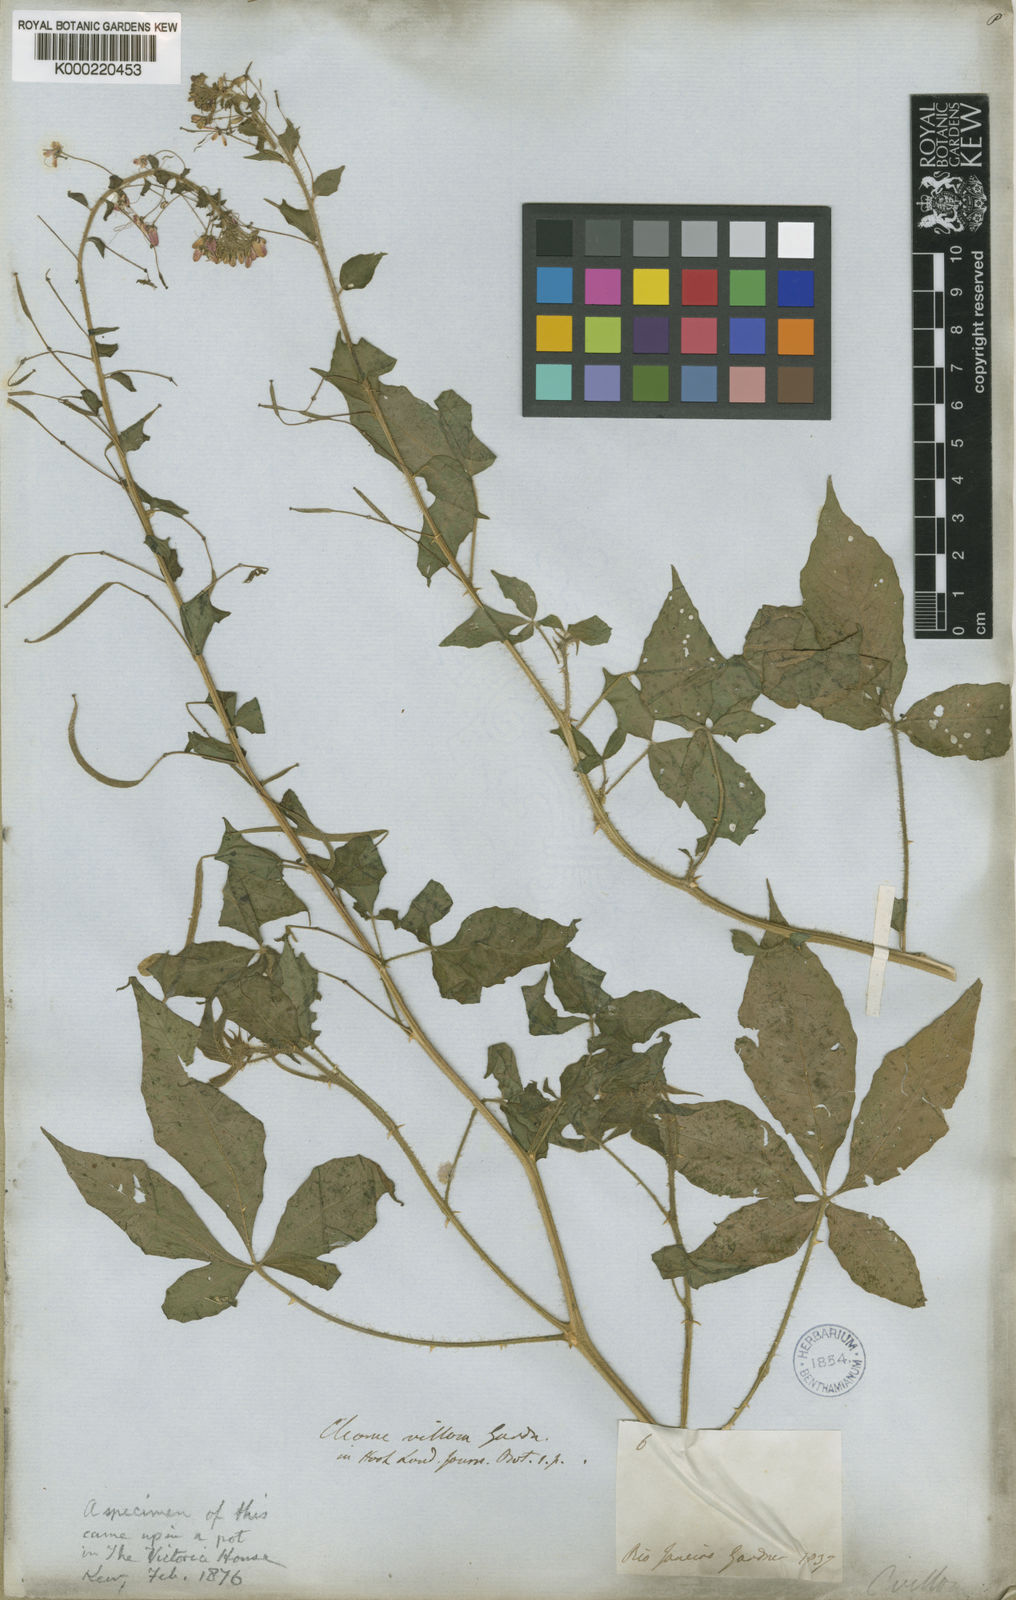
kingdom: Plantae
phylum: Tracheophyta
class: Magnoliopsida
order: Brassicales
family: Cleomaceae
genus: Tarenaya
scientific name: Tarenaya psoraleifolia
